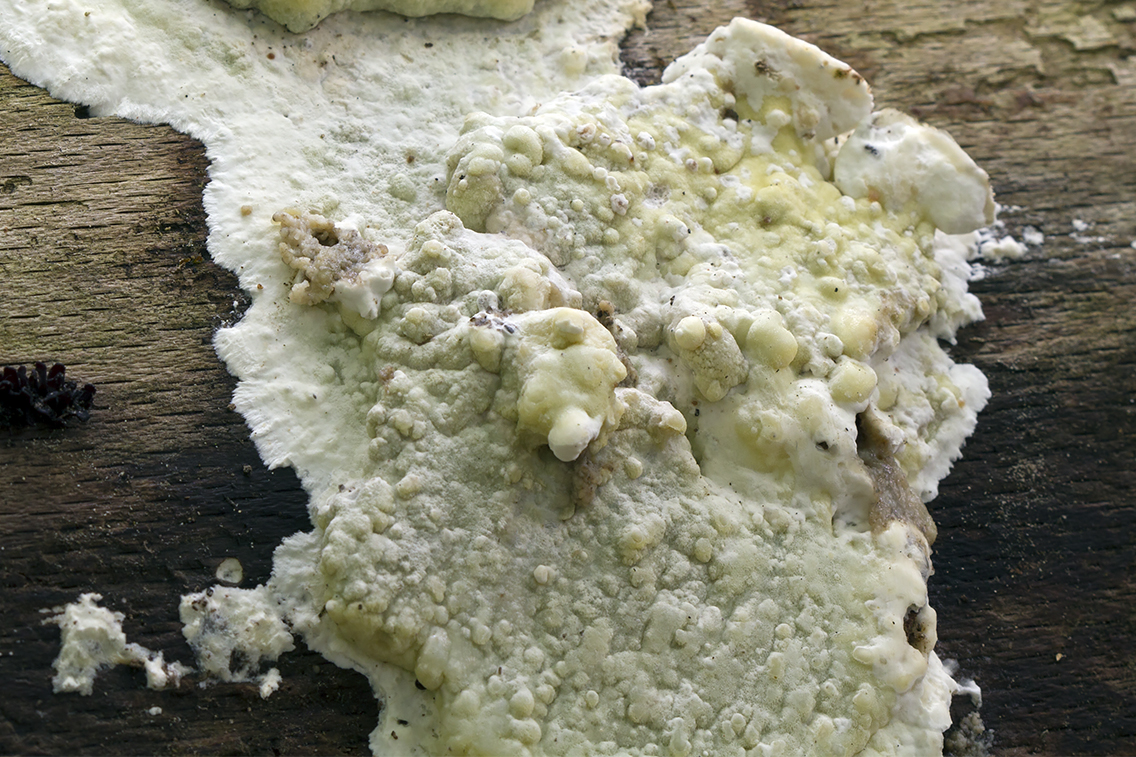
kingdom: Fungi
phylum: Basidiomycota
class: Agaricomycetes
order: Polyporales
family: Irpicaceae
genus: Gloeoporus
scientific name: Gloeoporus pannocinctus
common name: grøngul foldporesvamp
